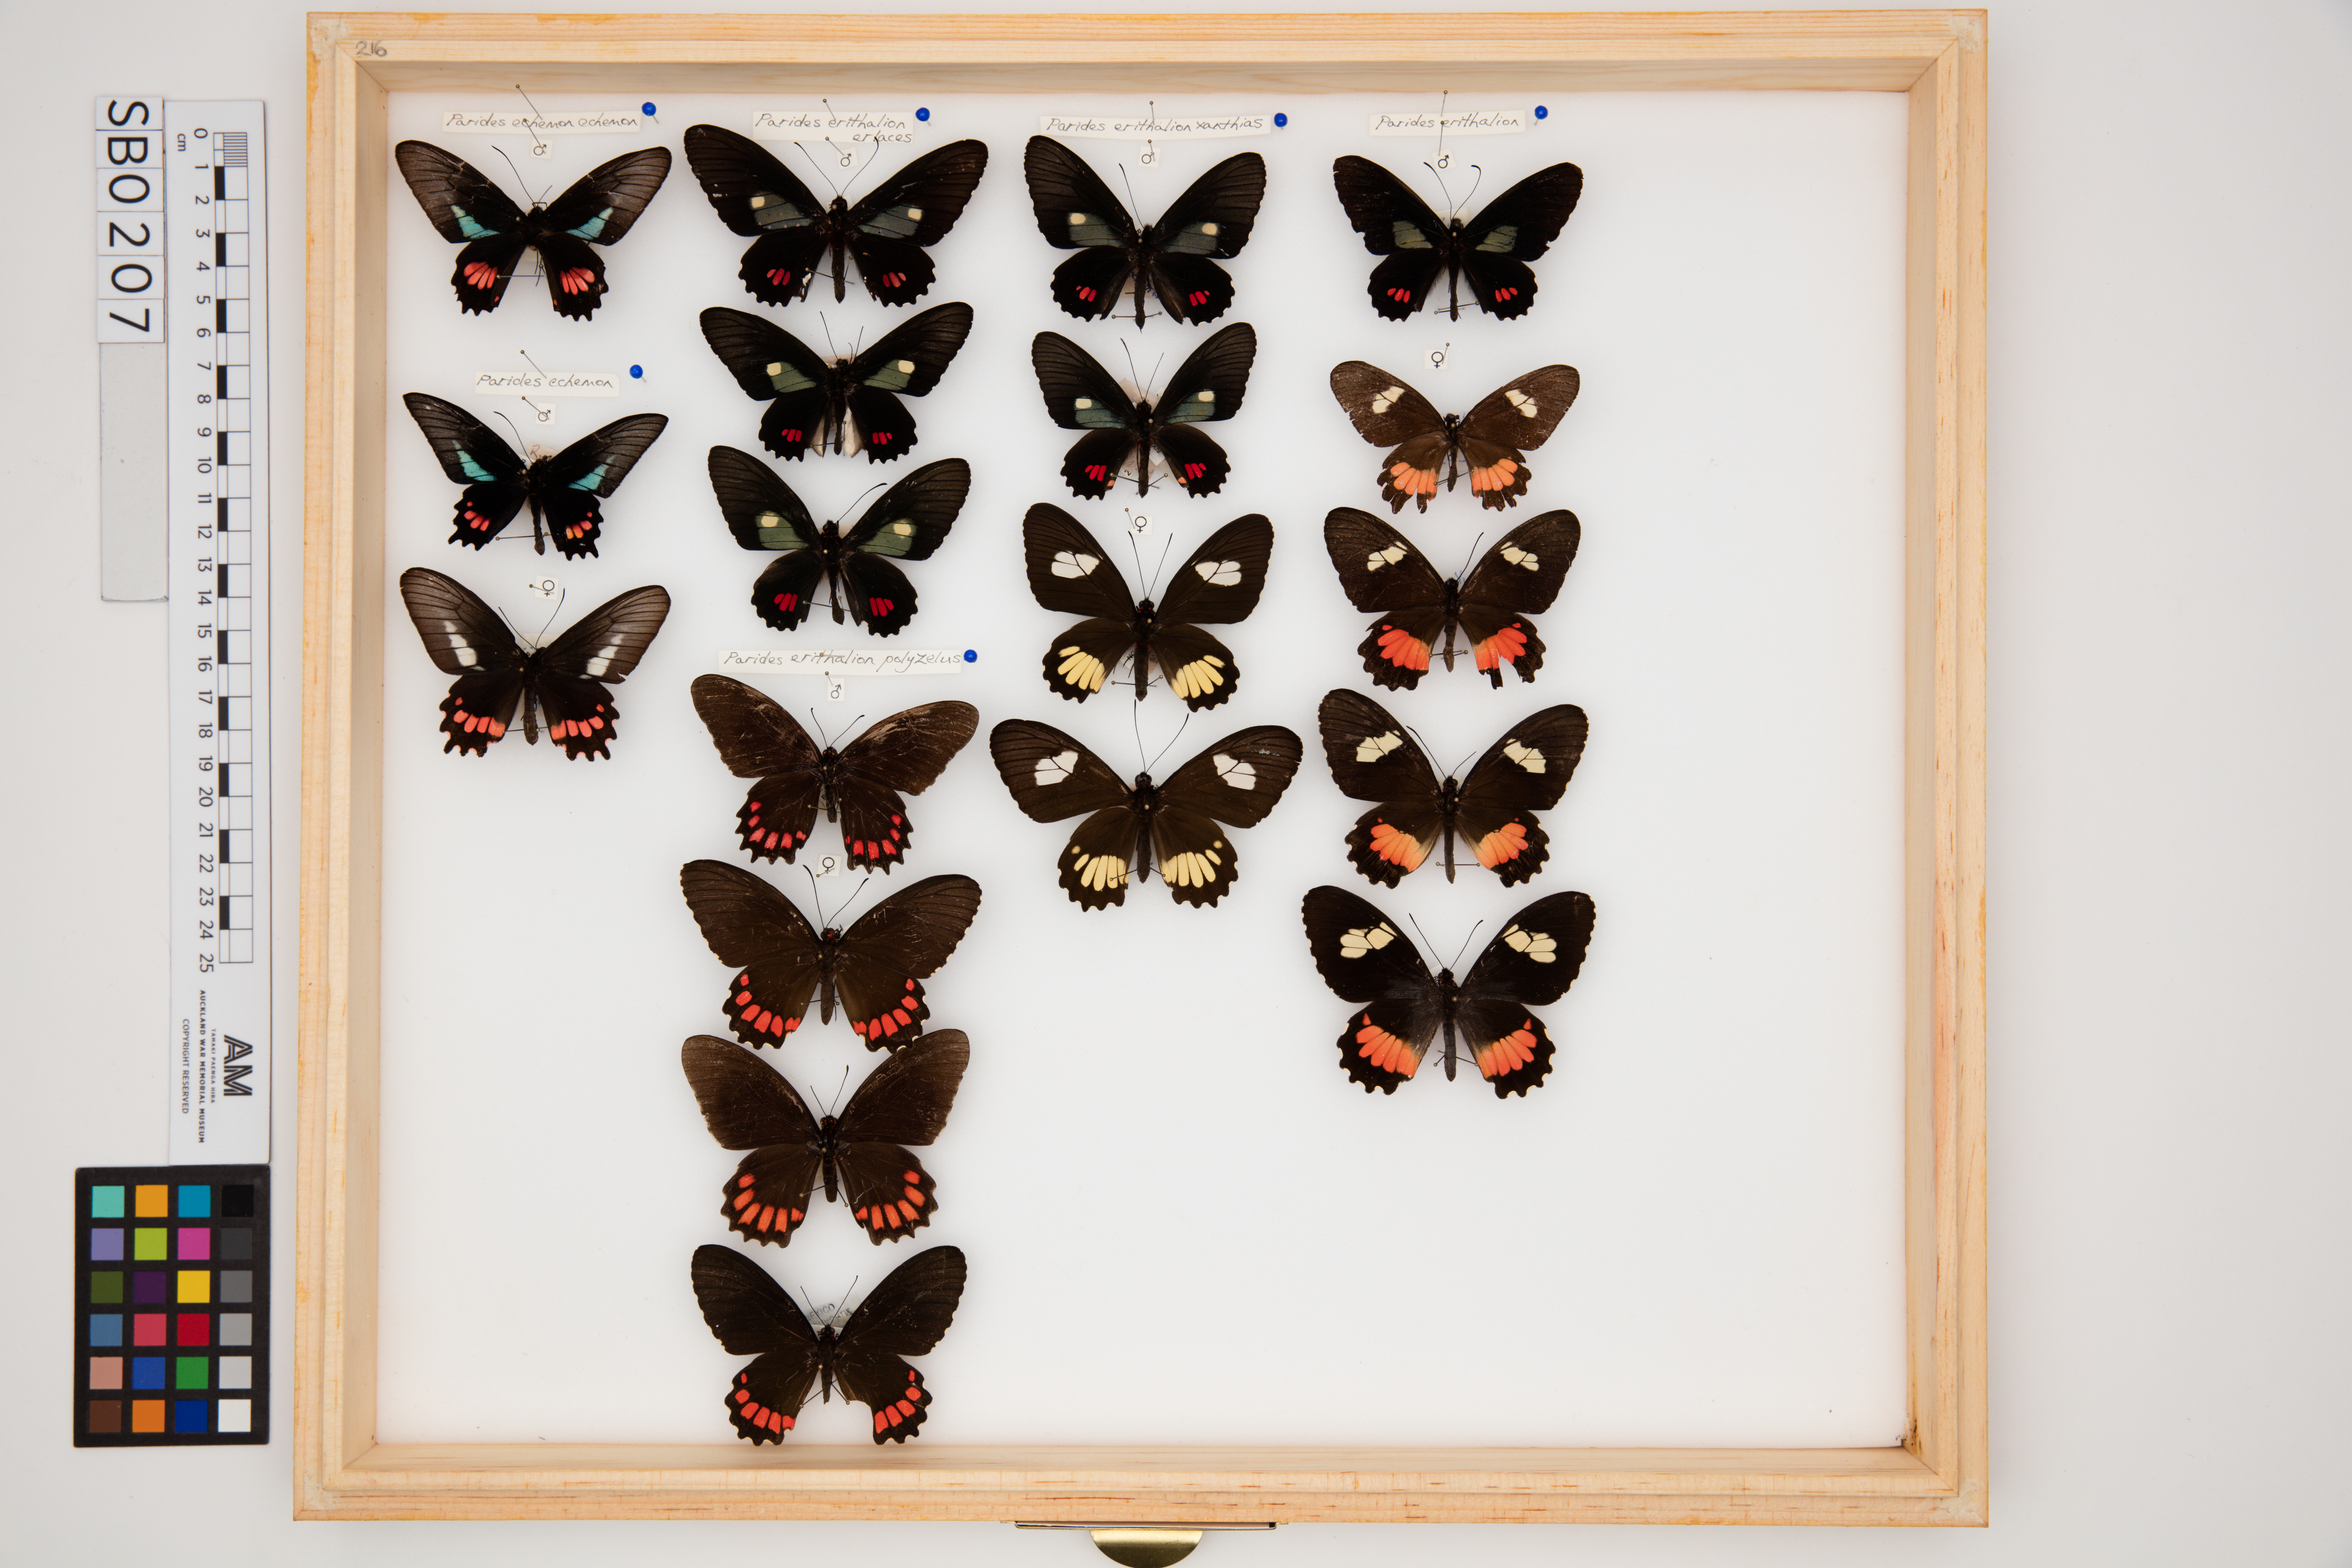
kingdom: Animalia
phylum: Arthropoda
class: Insecta
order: Lepidoptera
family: Papilionidae
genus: Parides
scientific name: Parides erithalion
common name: Variable cattleheart
